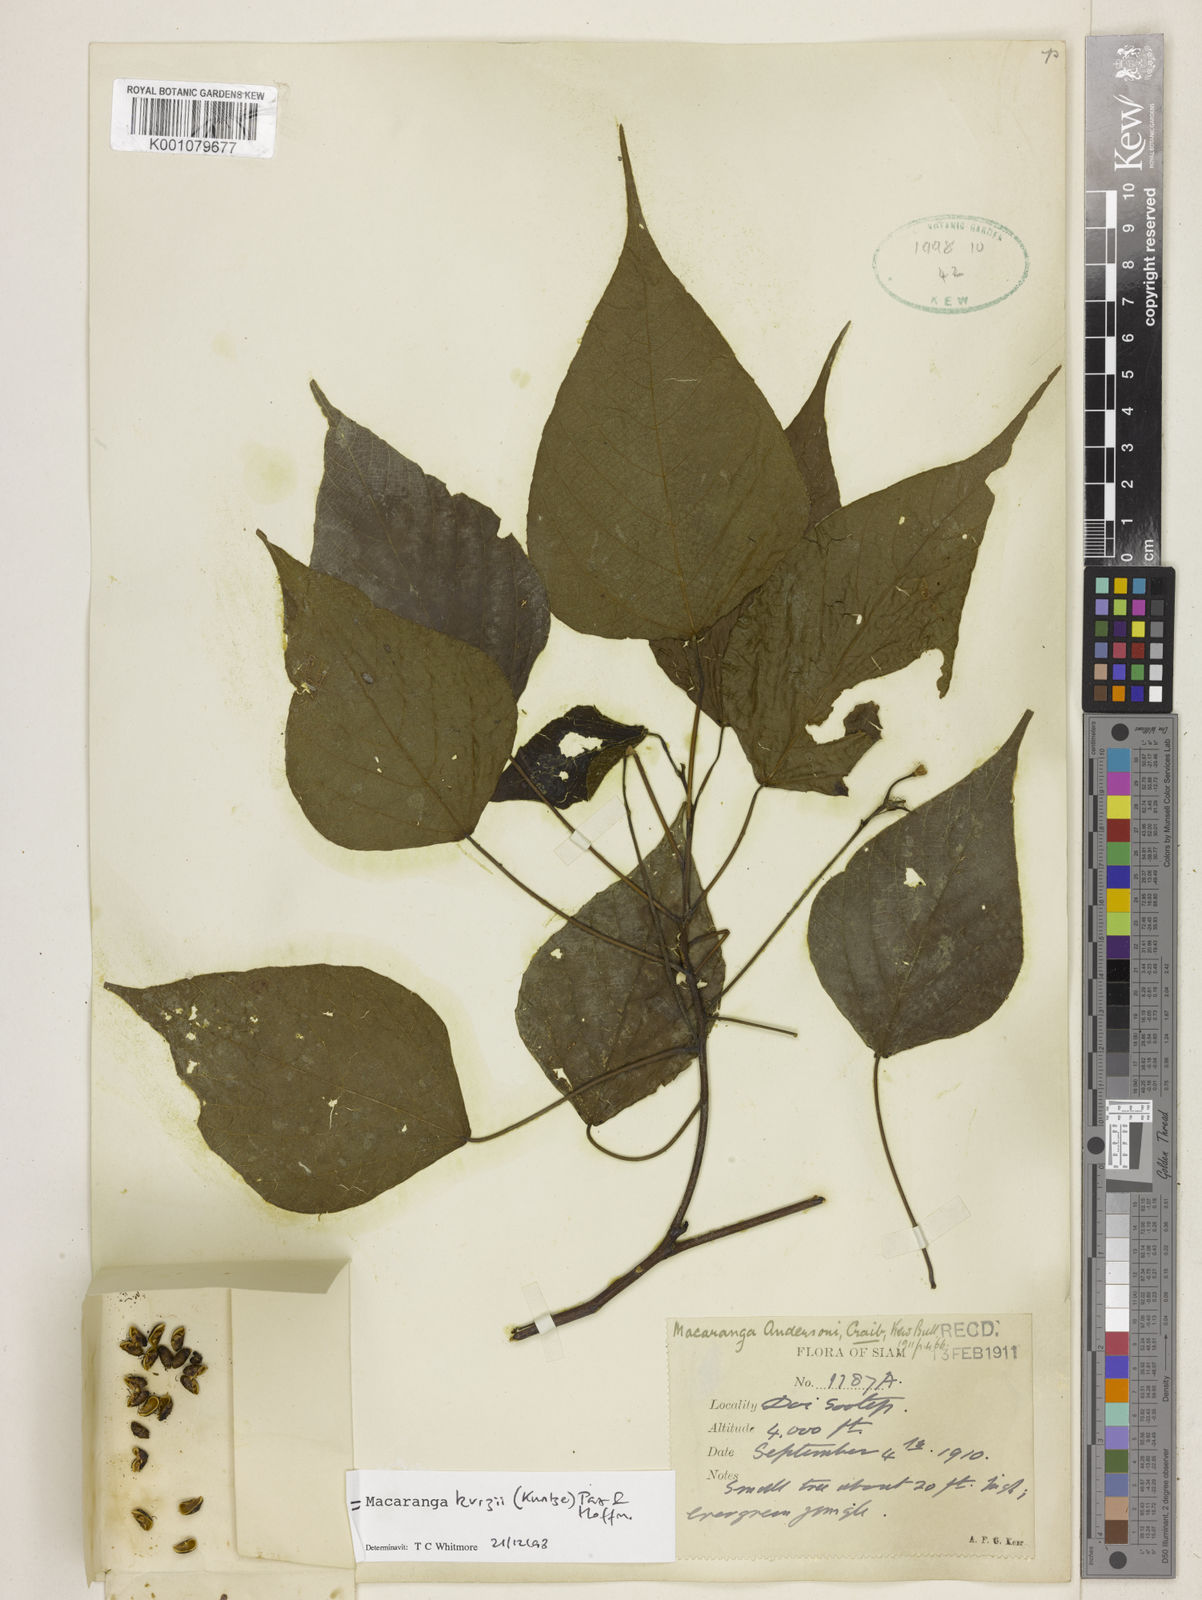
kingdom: Plantae
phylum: Tracheophyta
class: Magnoliopsida
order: Malpighiales
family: Euphorbiaceae
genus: Macaranga
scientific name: Macaranga kurzii
